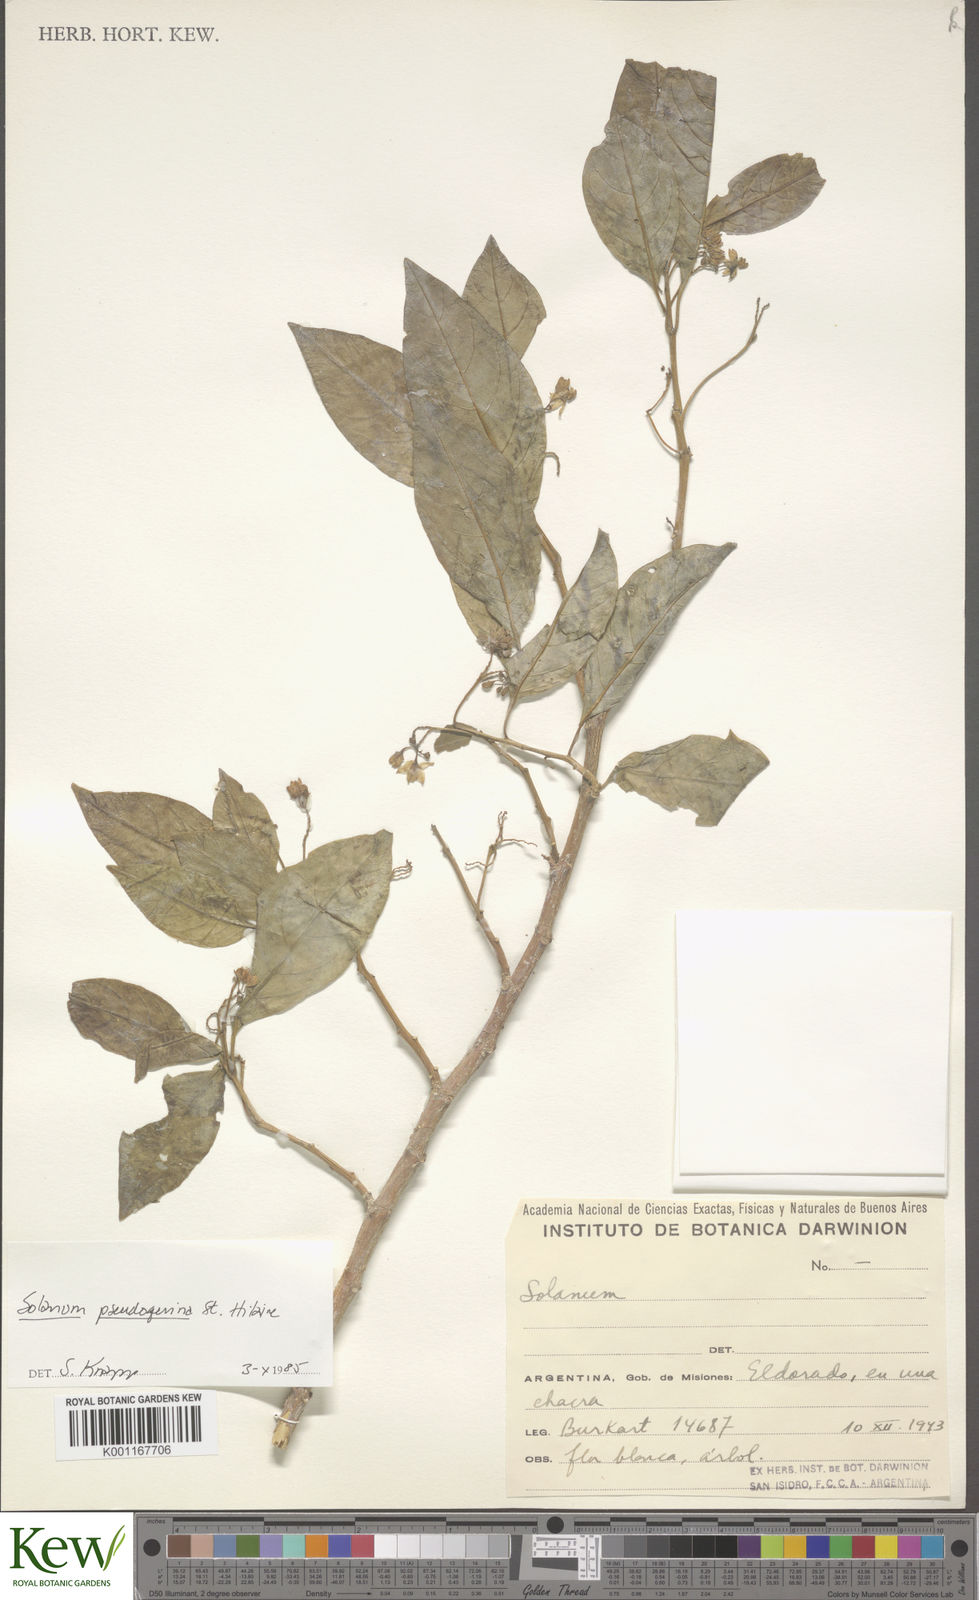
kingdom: Plantae
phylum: Tracheophyta
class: Magnoliopsida
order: Solanales
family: Solanaceae
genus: Solanum
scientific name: Solanum pseudoquina
